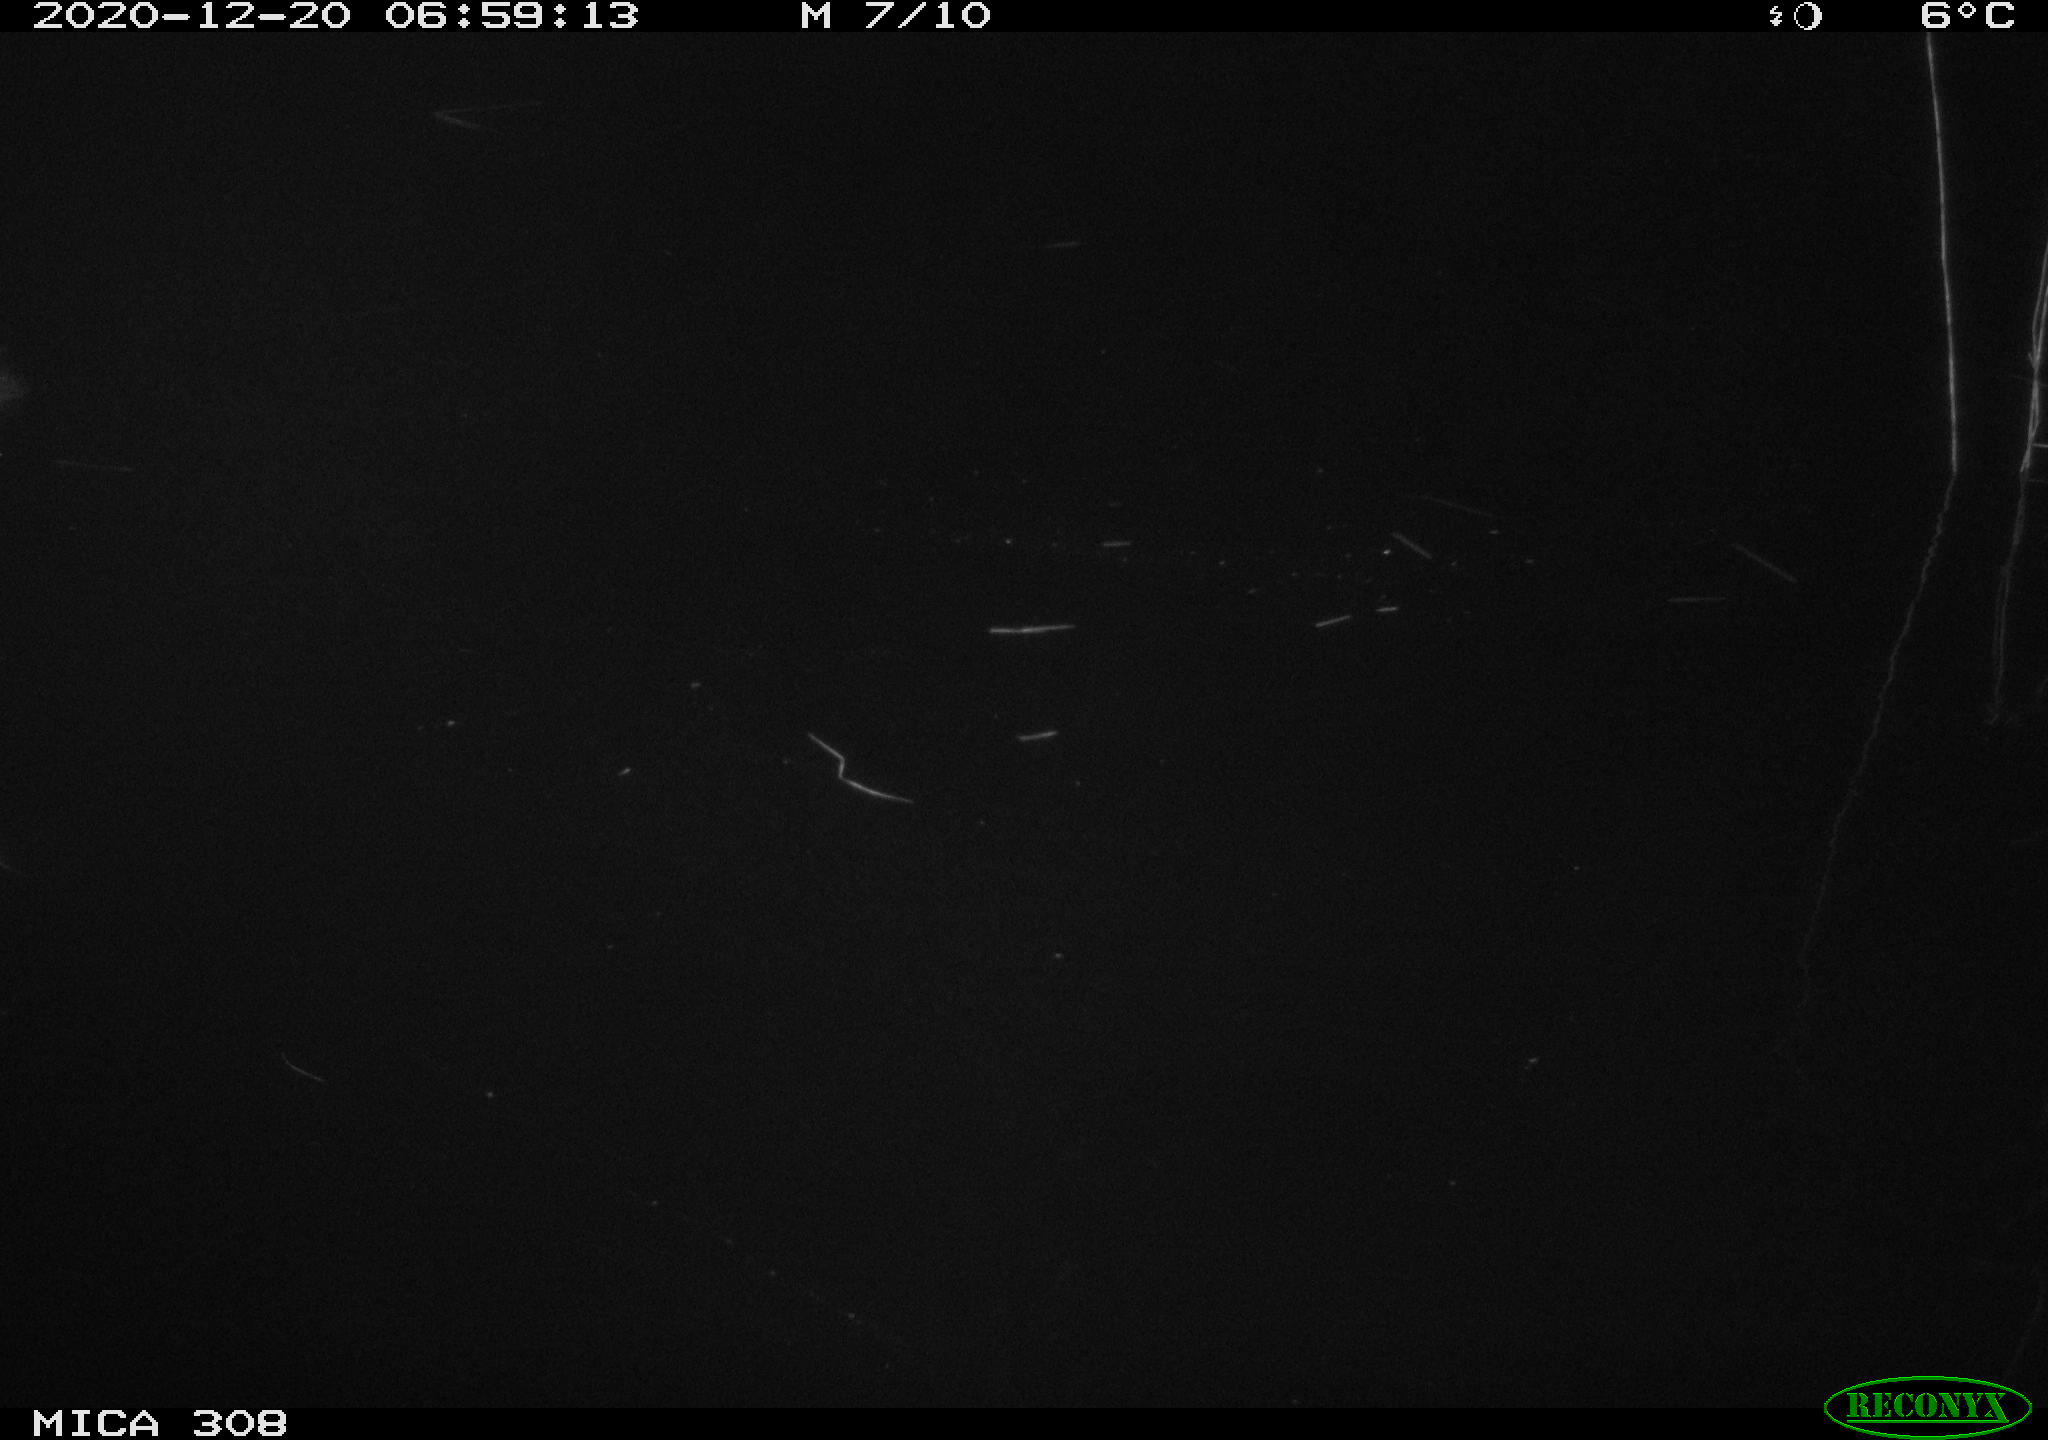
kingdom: Animalia
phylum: Chordata
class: Aves
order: Gruiformes
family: Rallidae
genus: Fulica
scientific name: Fulica atra
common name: Eurasian coot
